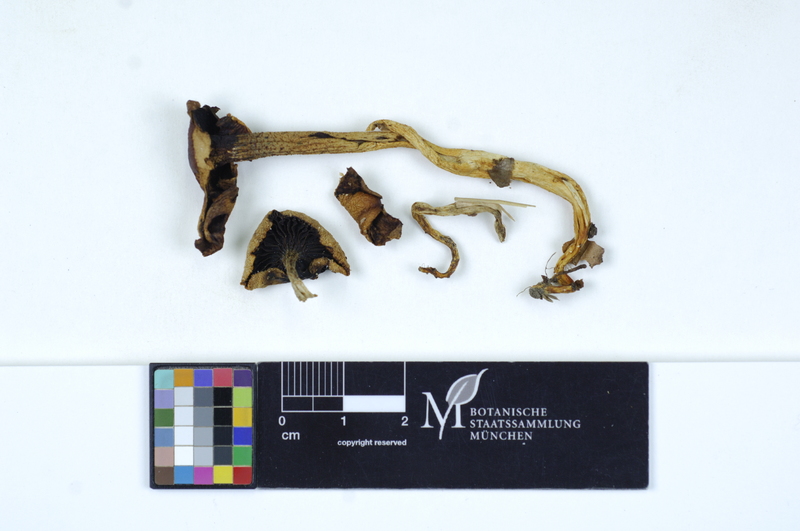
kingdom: Fungi
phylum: Basidiomycota
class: Agaricomycetes
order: Agaricales
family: Hygrophoraceae
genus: Hygrophorus
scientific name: Hygrophorus cossus
